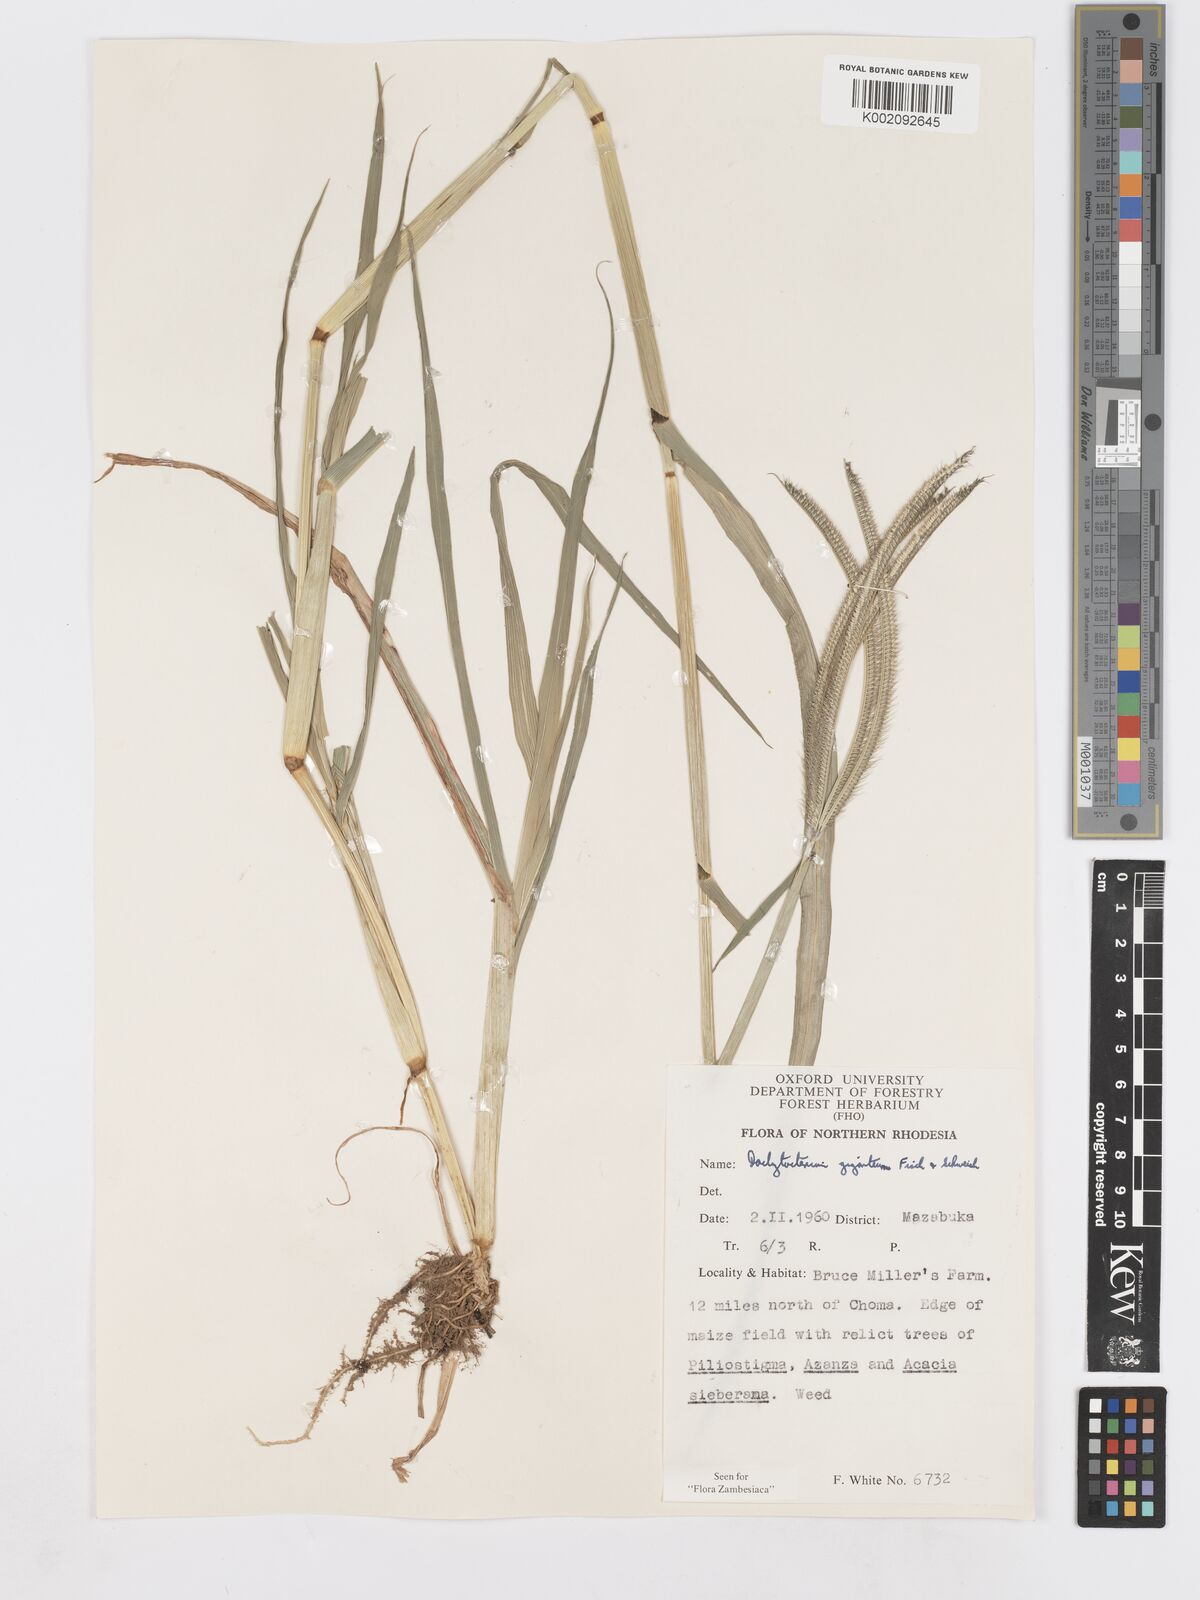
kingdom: Plantae
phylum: Tracheophyta
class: Liliopsida
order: Poales
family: Poaceae
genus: Dactyloctenium
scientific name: Dactyloctenium giganteum
